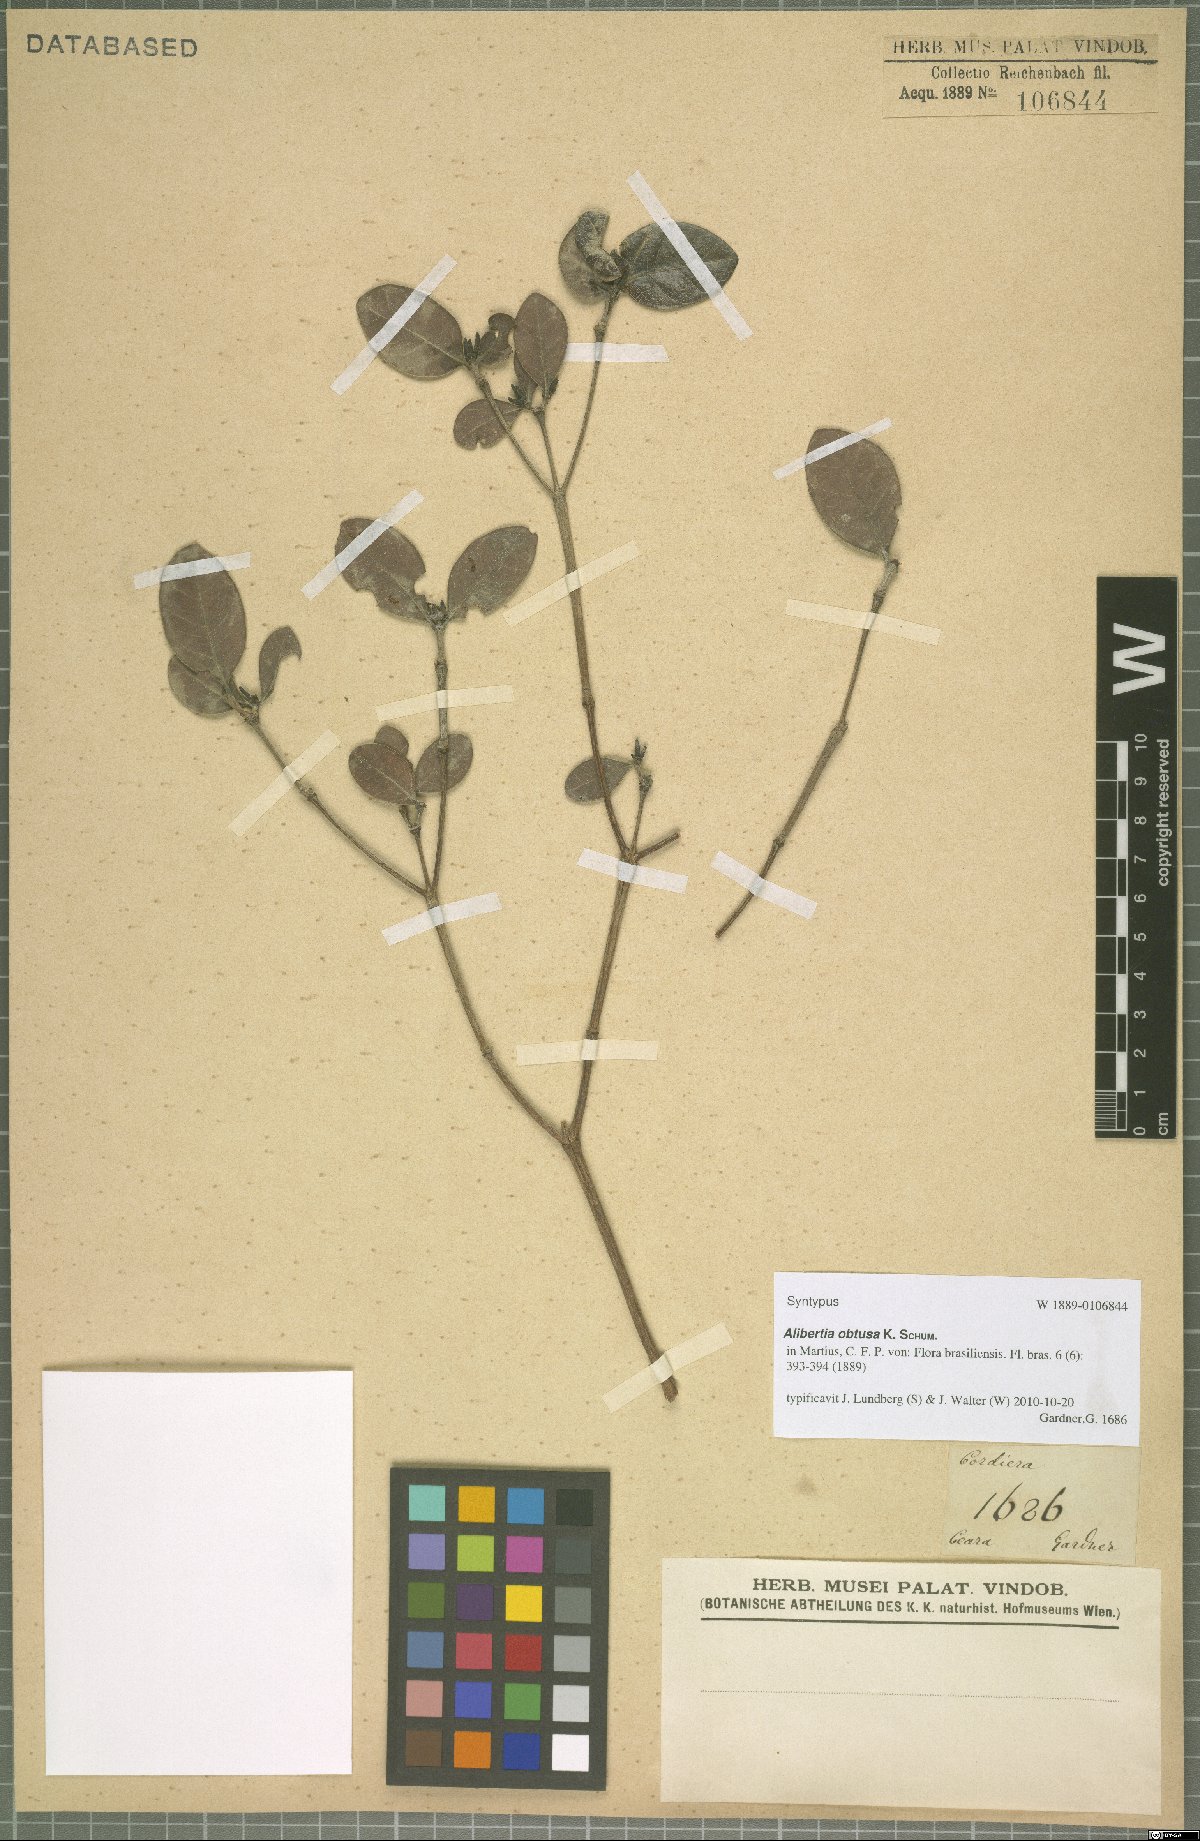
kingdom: Plantae
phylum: Tracheophyta
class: Magnoliopsida
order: Gentianales
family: Rubiaceae
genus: Cordiera
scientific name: Cordiera obtusa
